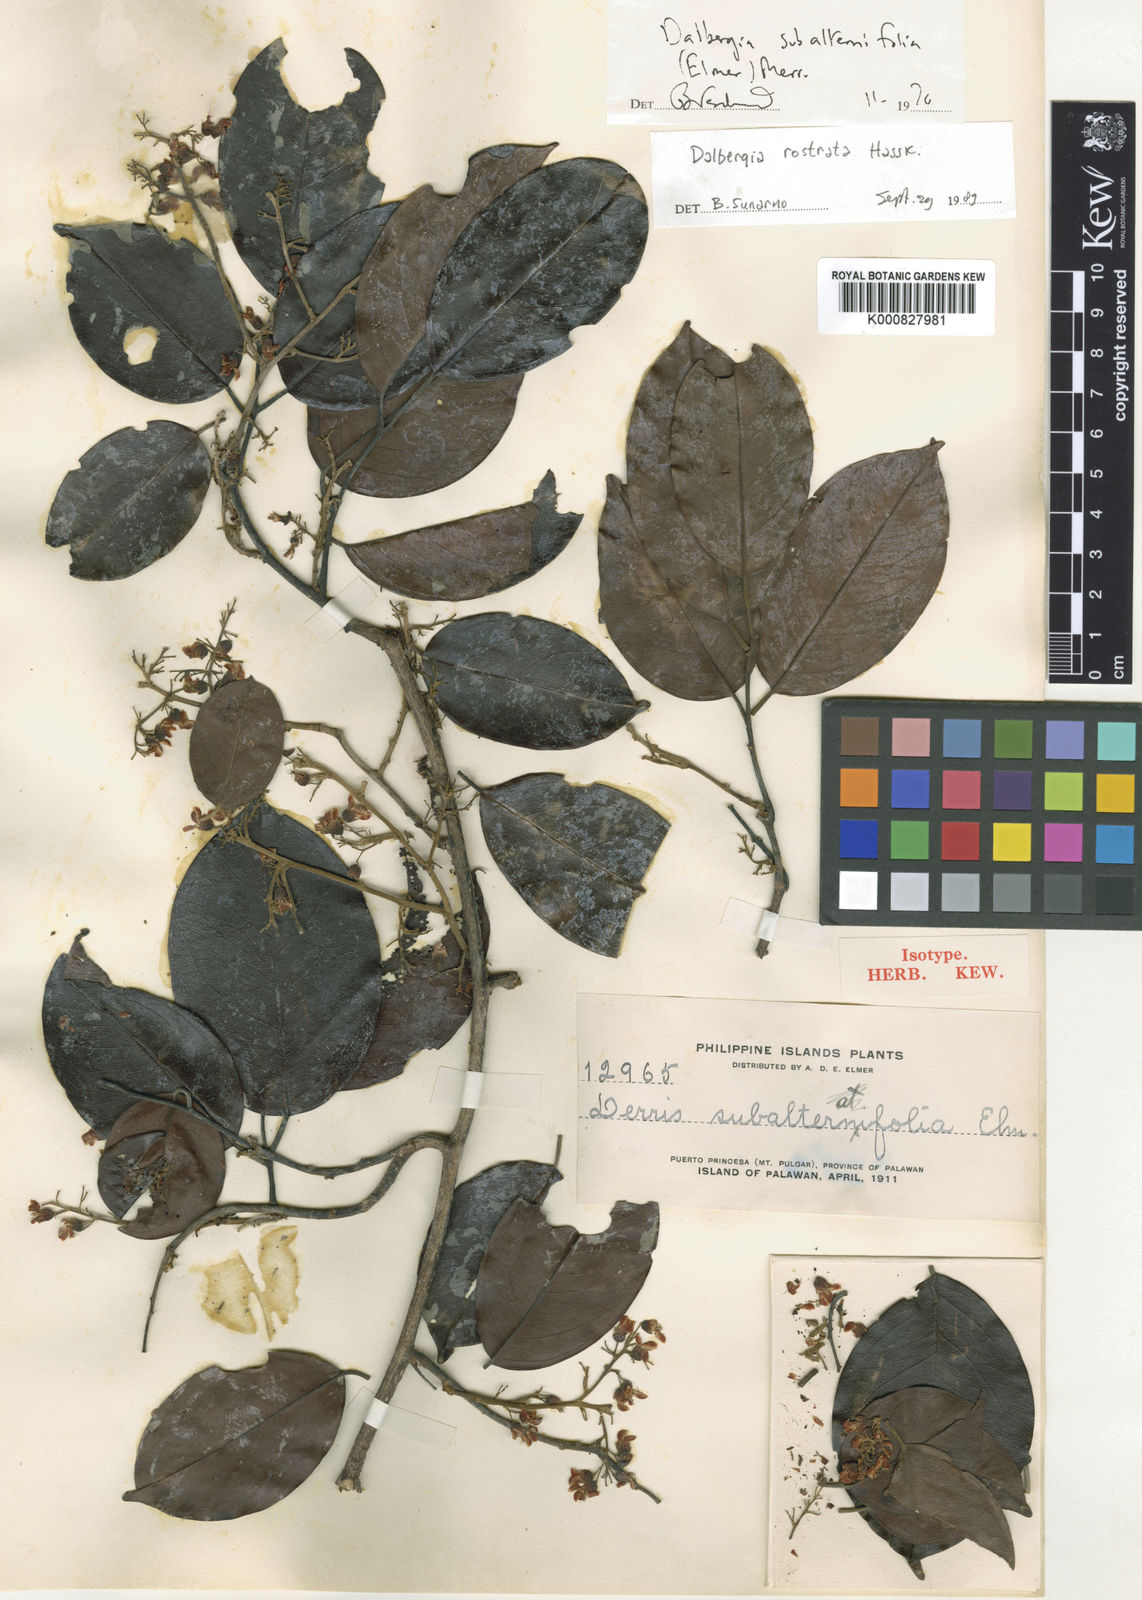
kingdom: Plantae
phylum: Tracheophyta
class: Magnoliopsida
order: Fabales
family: Fabaceae
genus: Dalbergia
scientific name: Dalbergia rostrata
